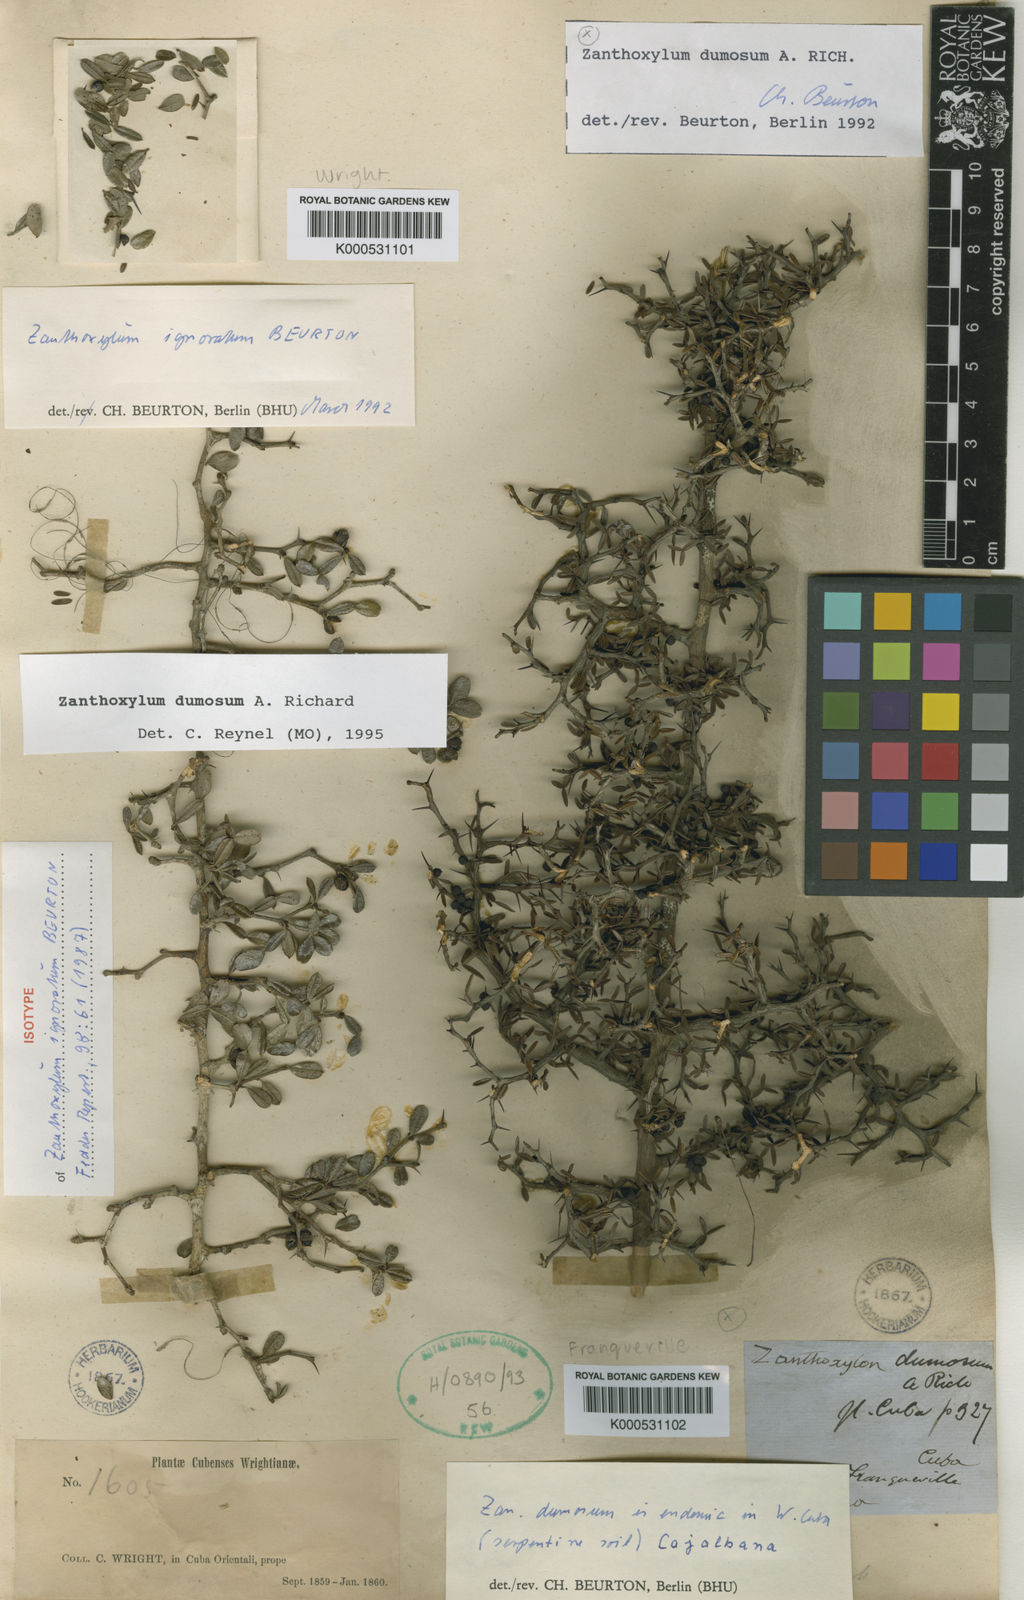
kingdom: Plantae
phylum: Tracheophyta
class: Magnoliopsida
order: Sapindales
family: Rutaceae
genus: Zanthoxylum
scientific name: Zanthoxylum dumosum
